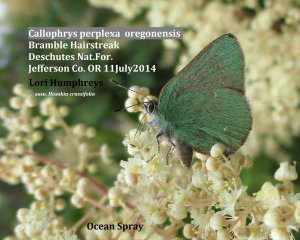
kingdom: Animalia
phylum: Arthropoda
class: Insecta
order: Lepidoptera
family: Lycaenidae
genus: Callophrys
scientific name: Callophrys dumetorum
